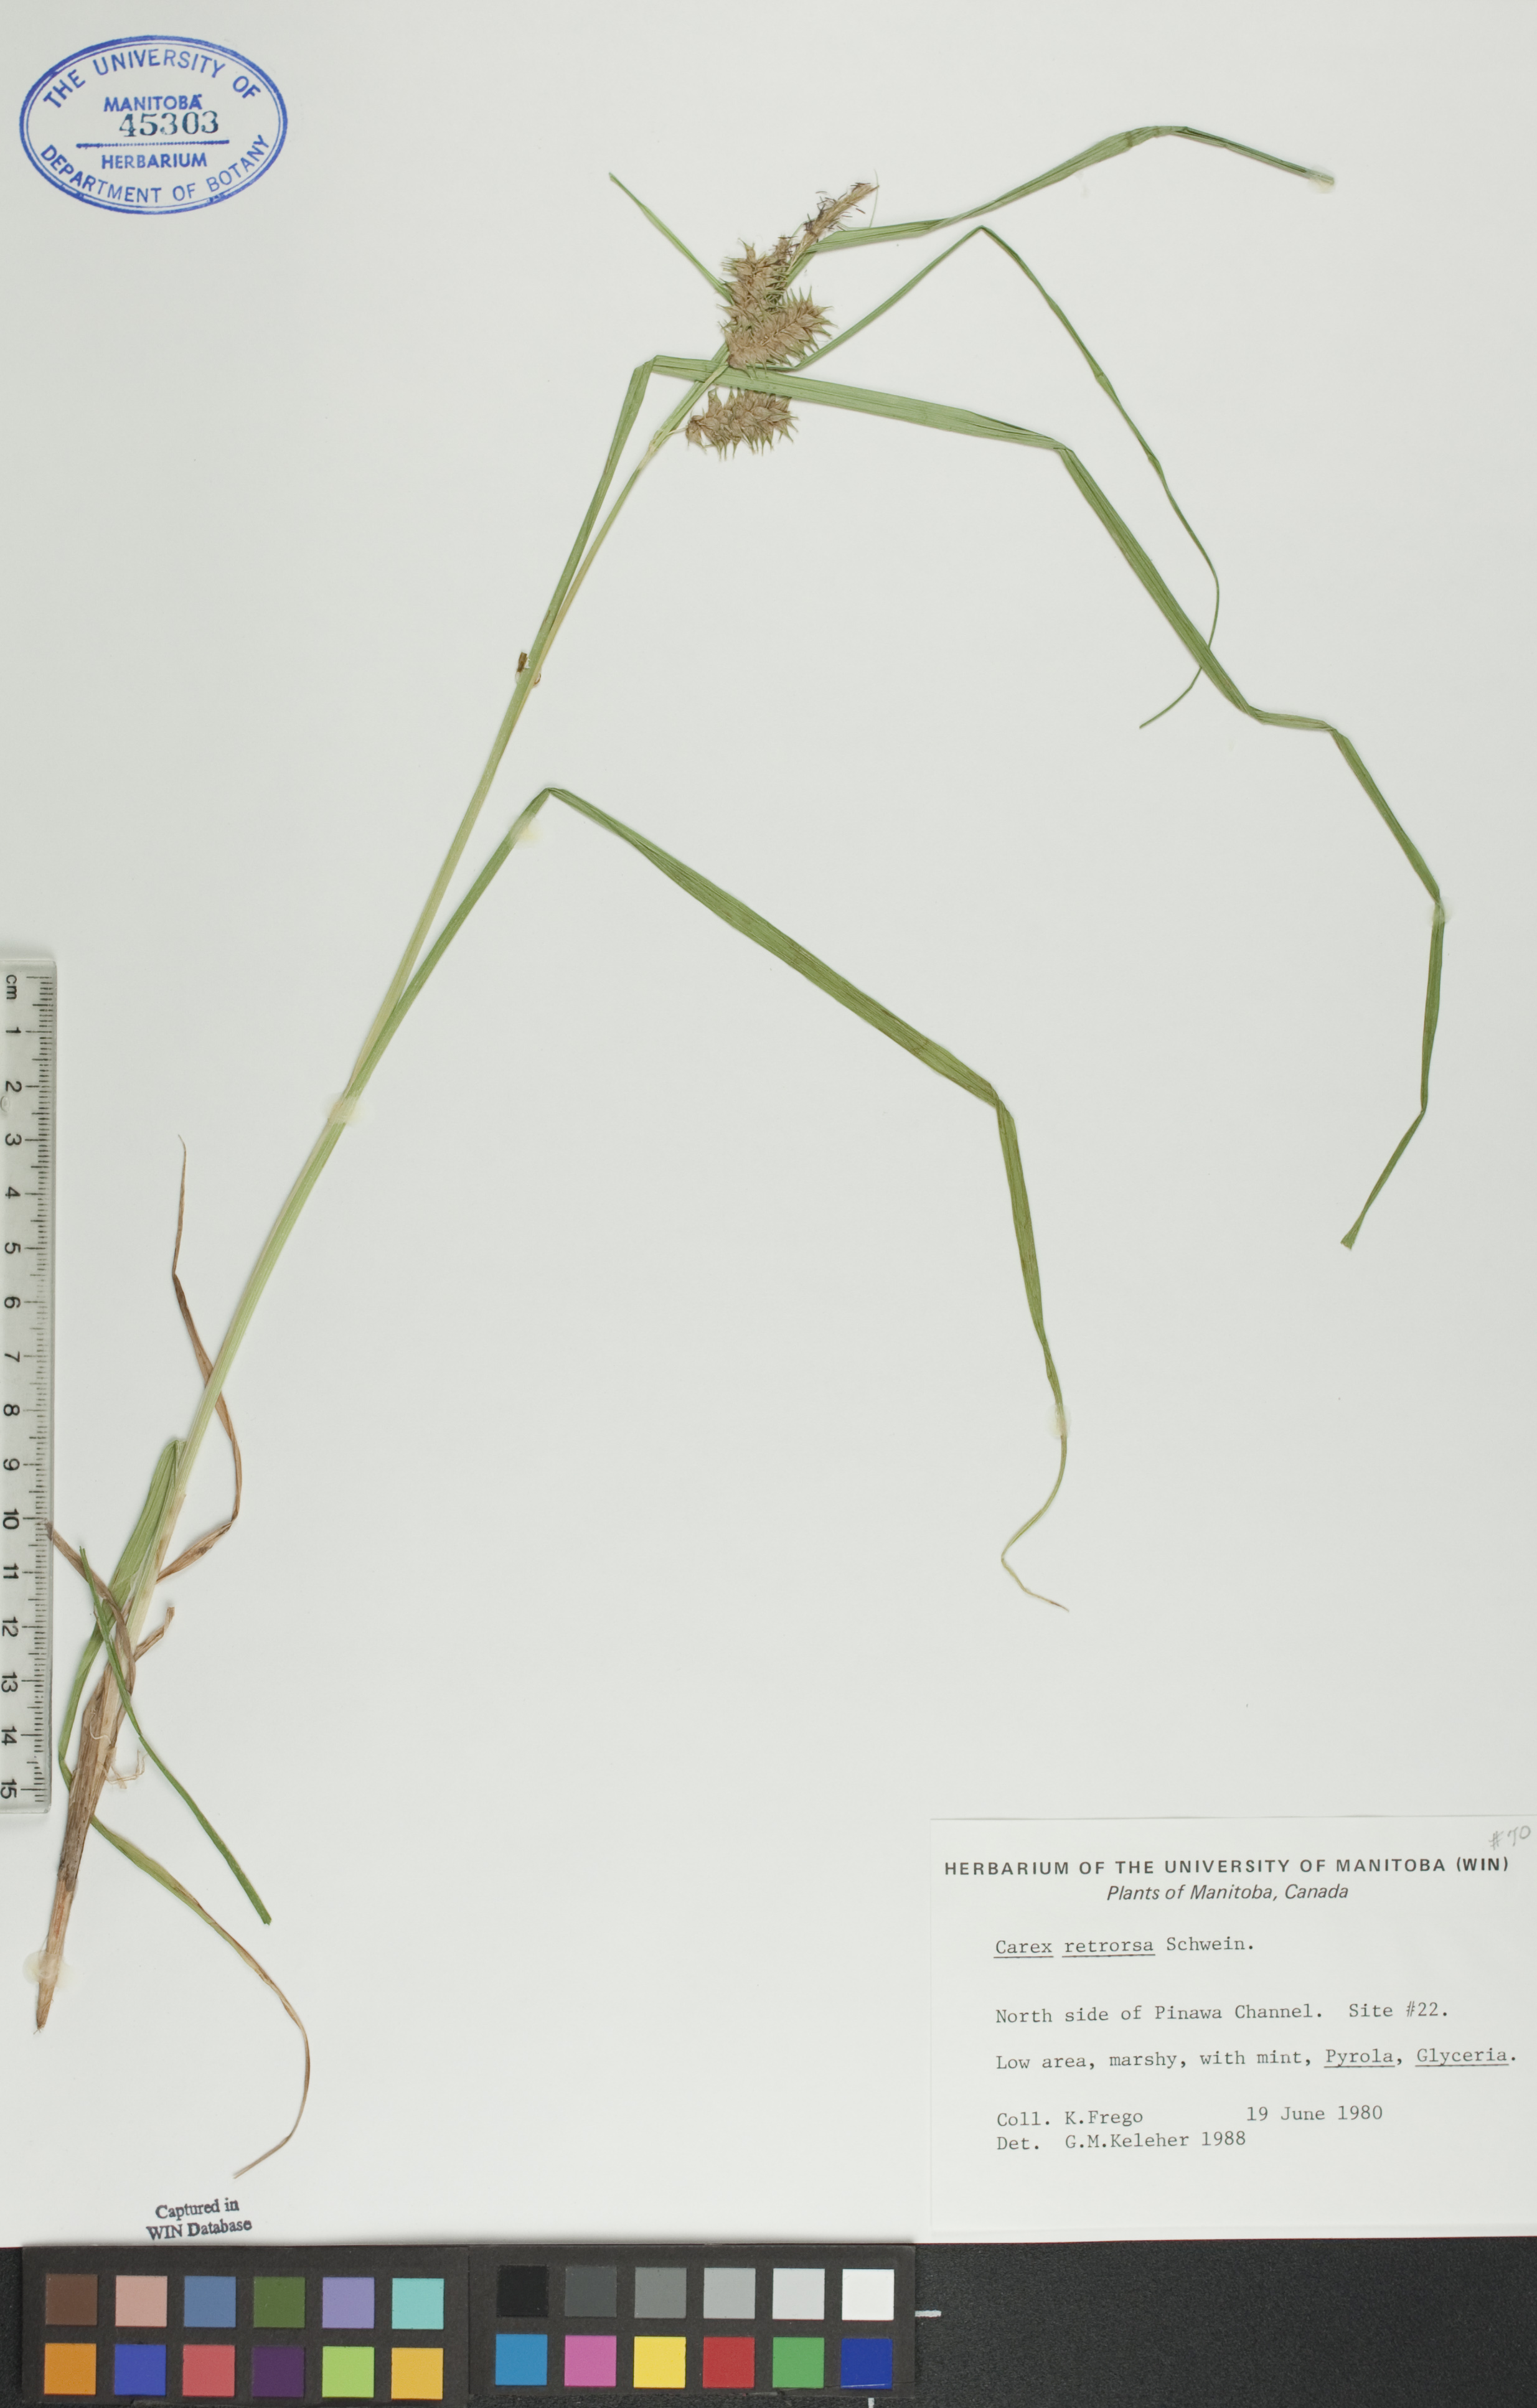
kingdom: Plantae
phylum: Tracheophyta
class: Liliopsida
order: Poales
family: Cyperaceae
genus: Carex
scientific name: Carex retrorsa
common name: Knot-sheath sedge
